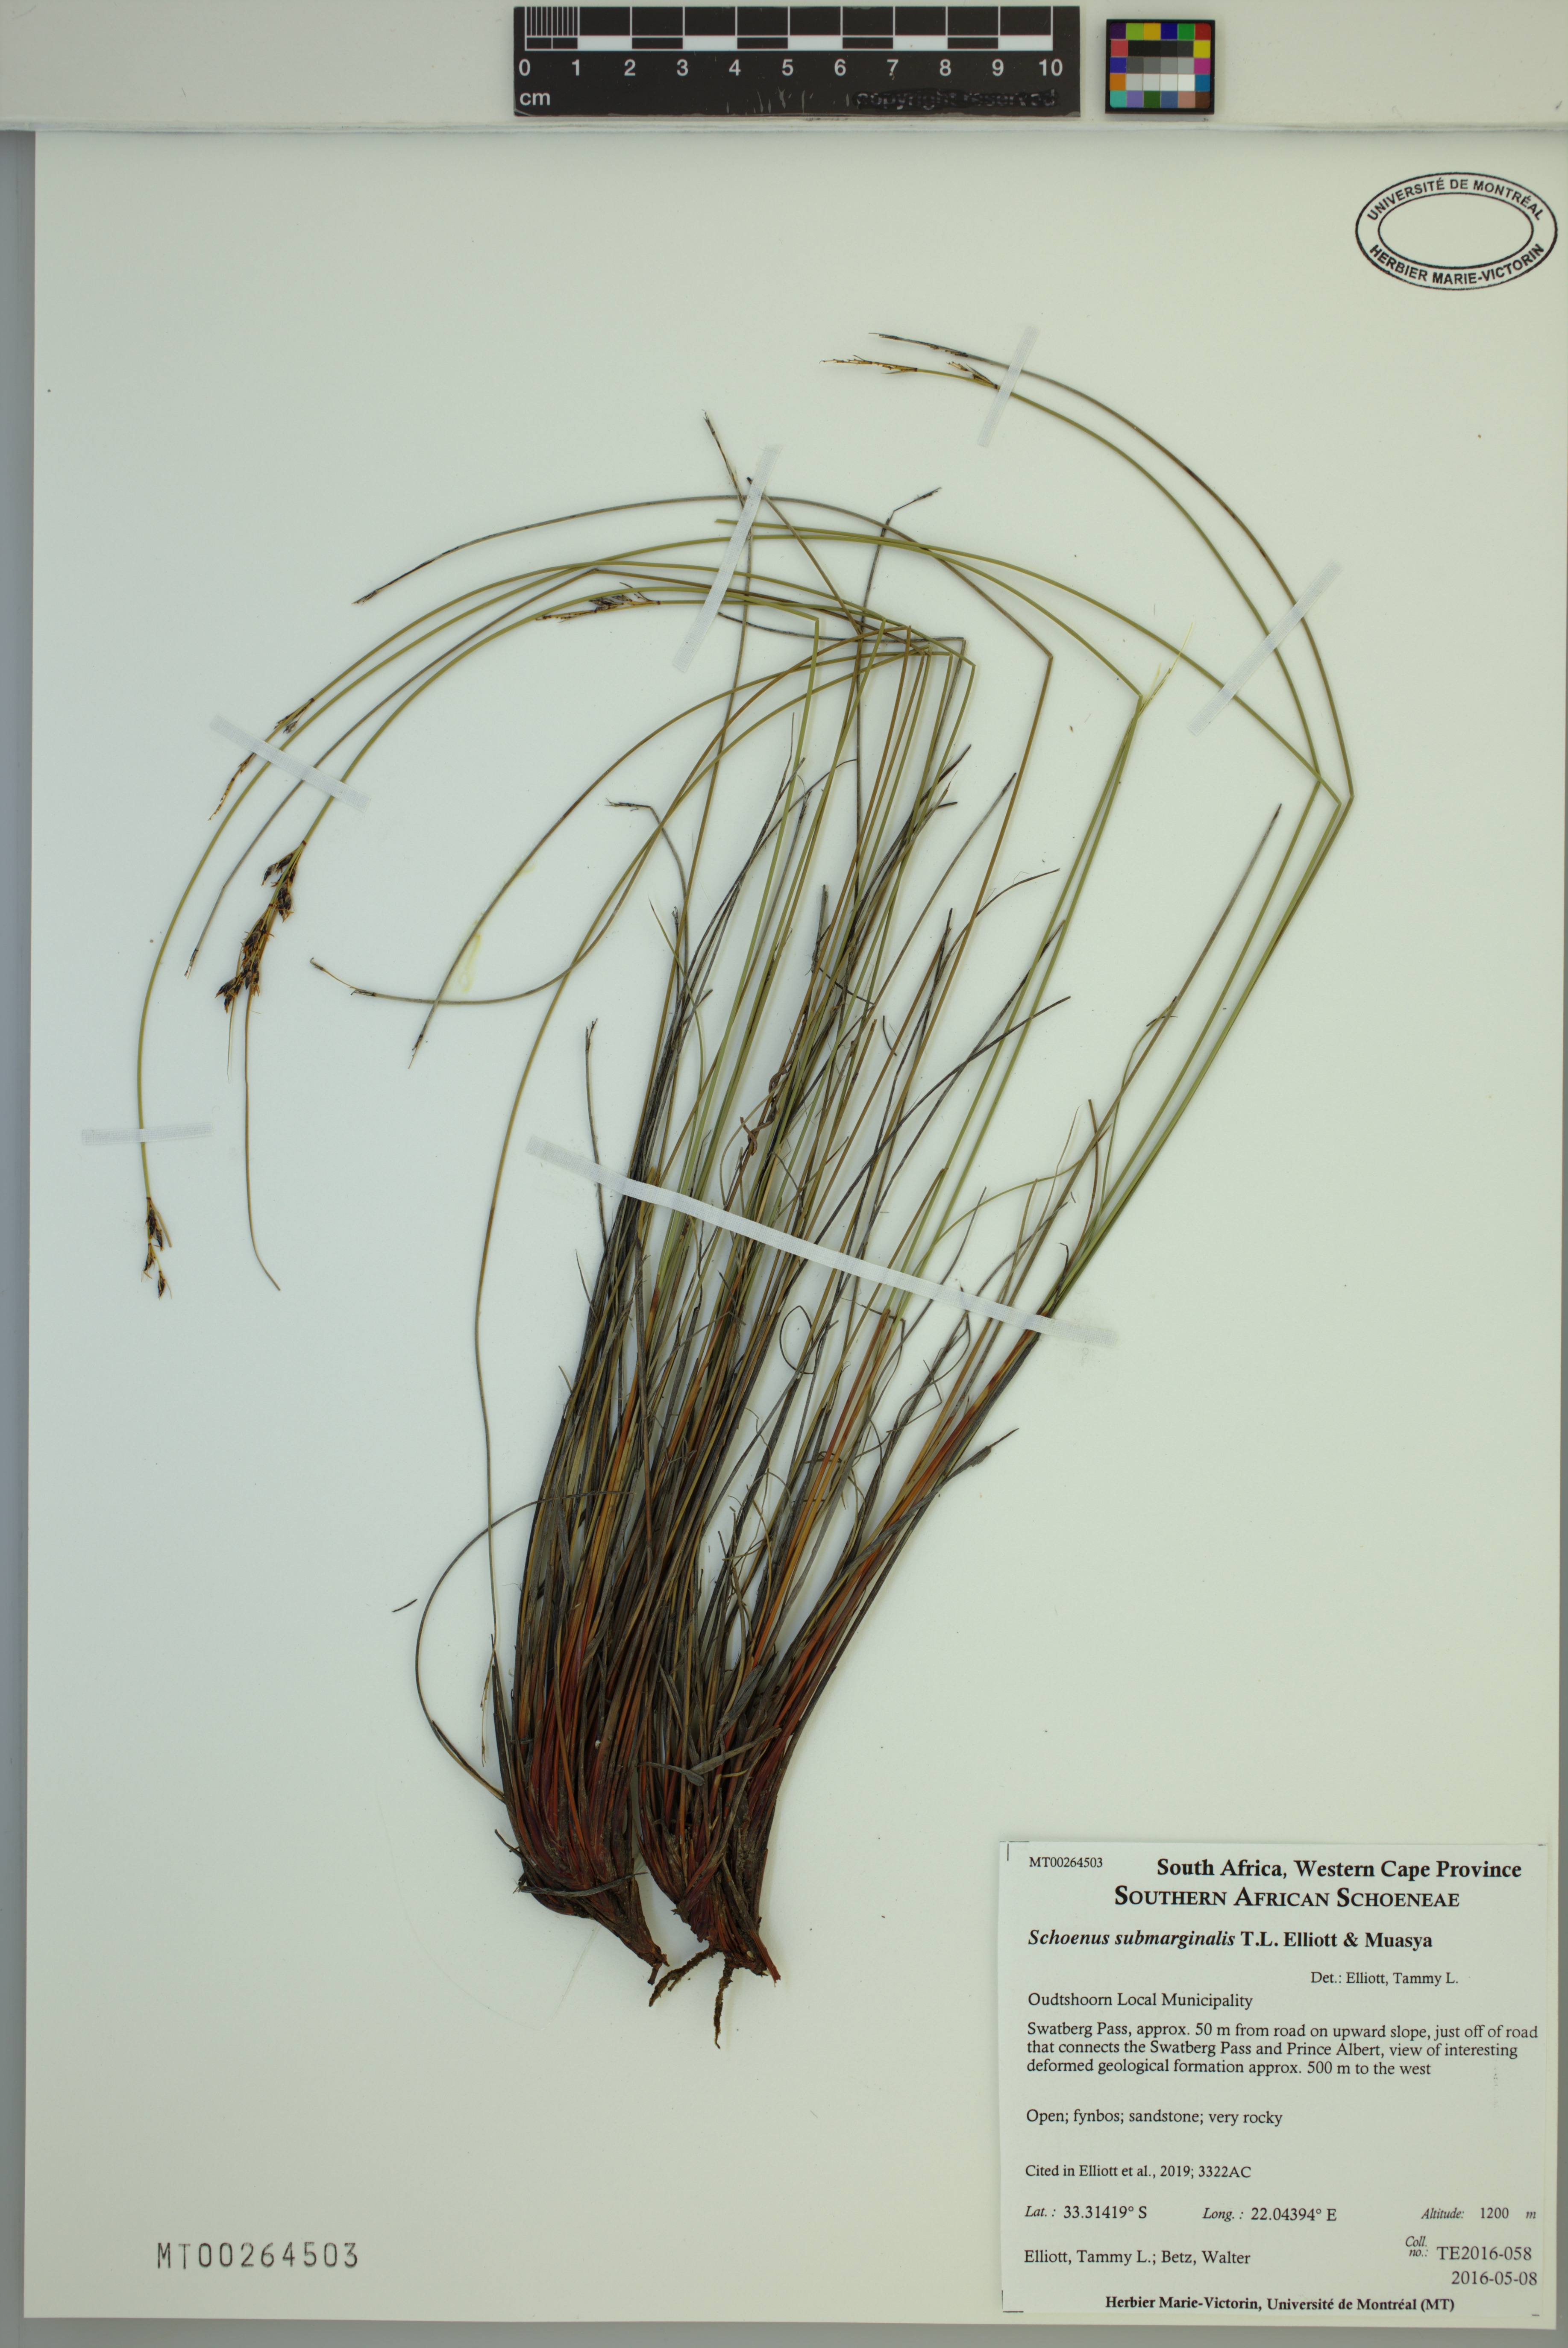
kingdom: Plantae
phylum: Tracheophyta
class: Liliopsida
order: Poales
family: Cyperaceae
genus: Schoenus
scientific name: Schoenus submarginalis
